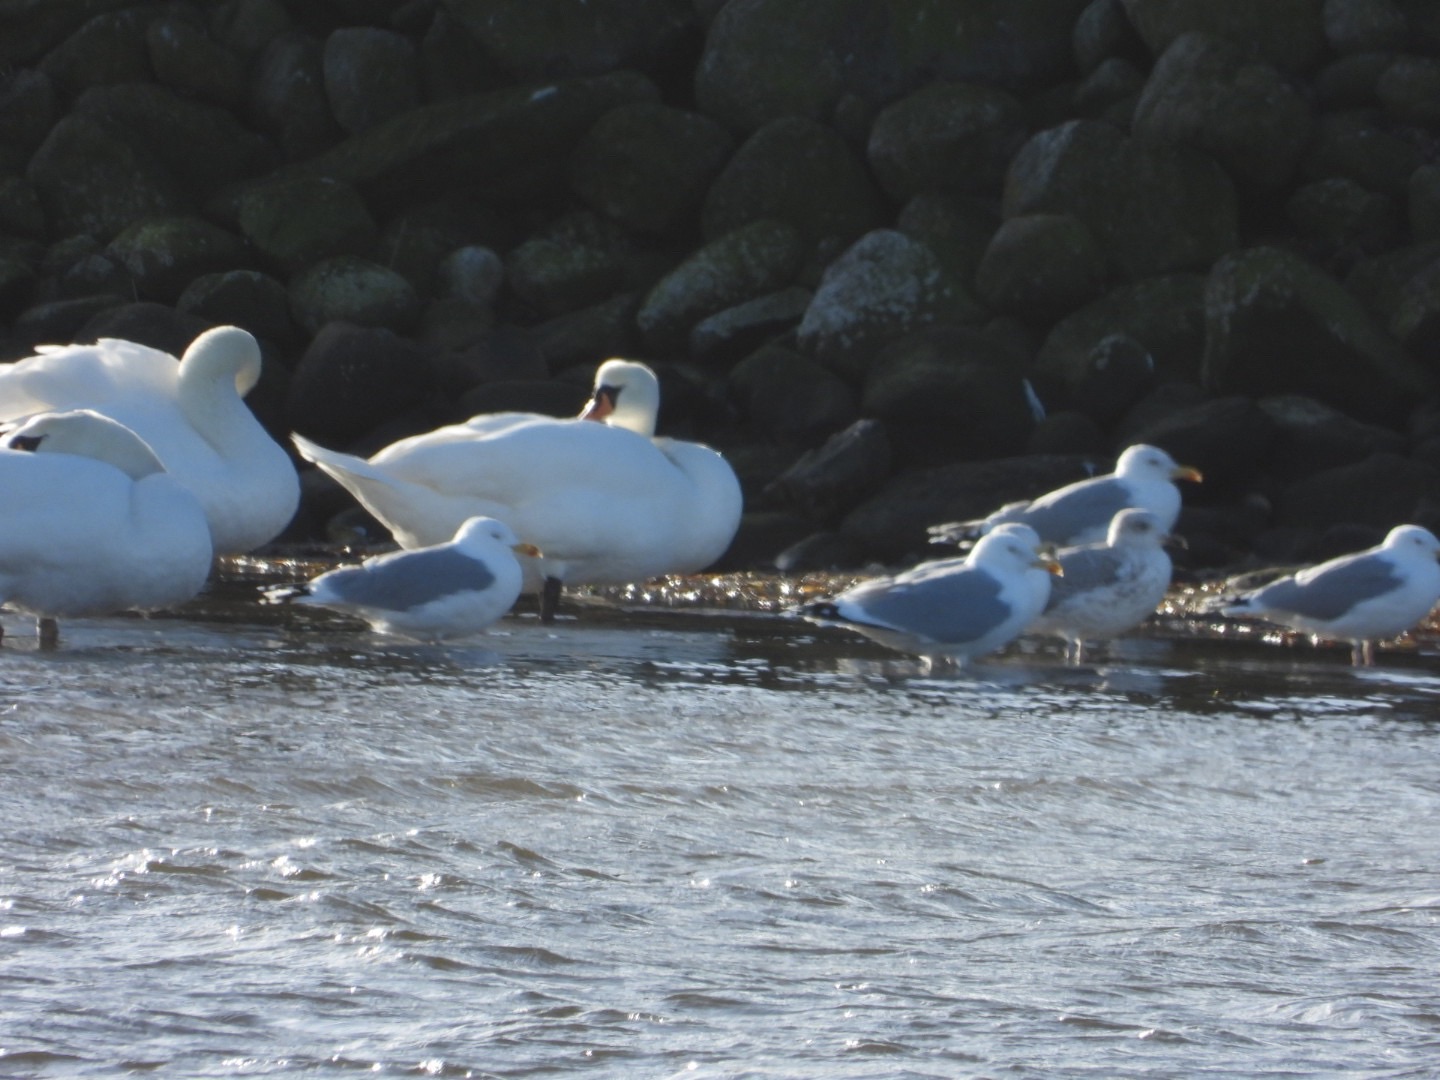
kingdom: Animalia
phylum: Chordata
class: Aves
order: Anseriformes
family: Anatidae
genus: Cygnus
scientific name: Cygnus olor
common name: Knopsvane
